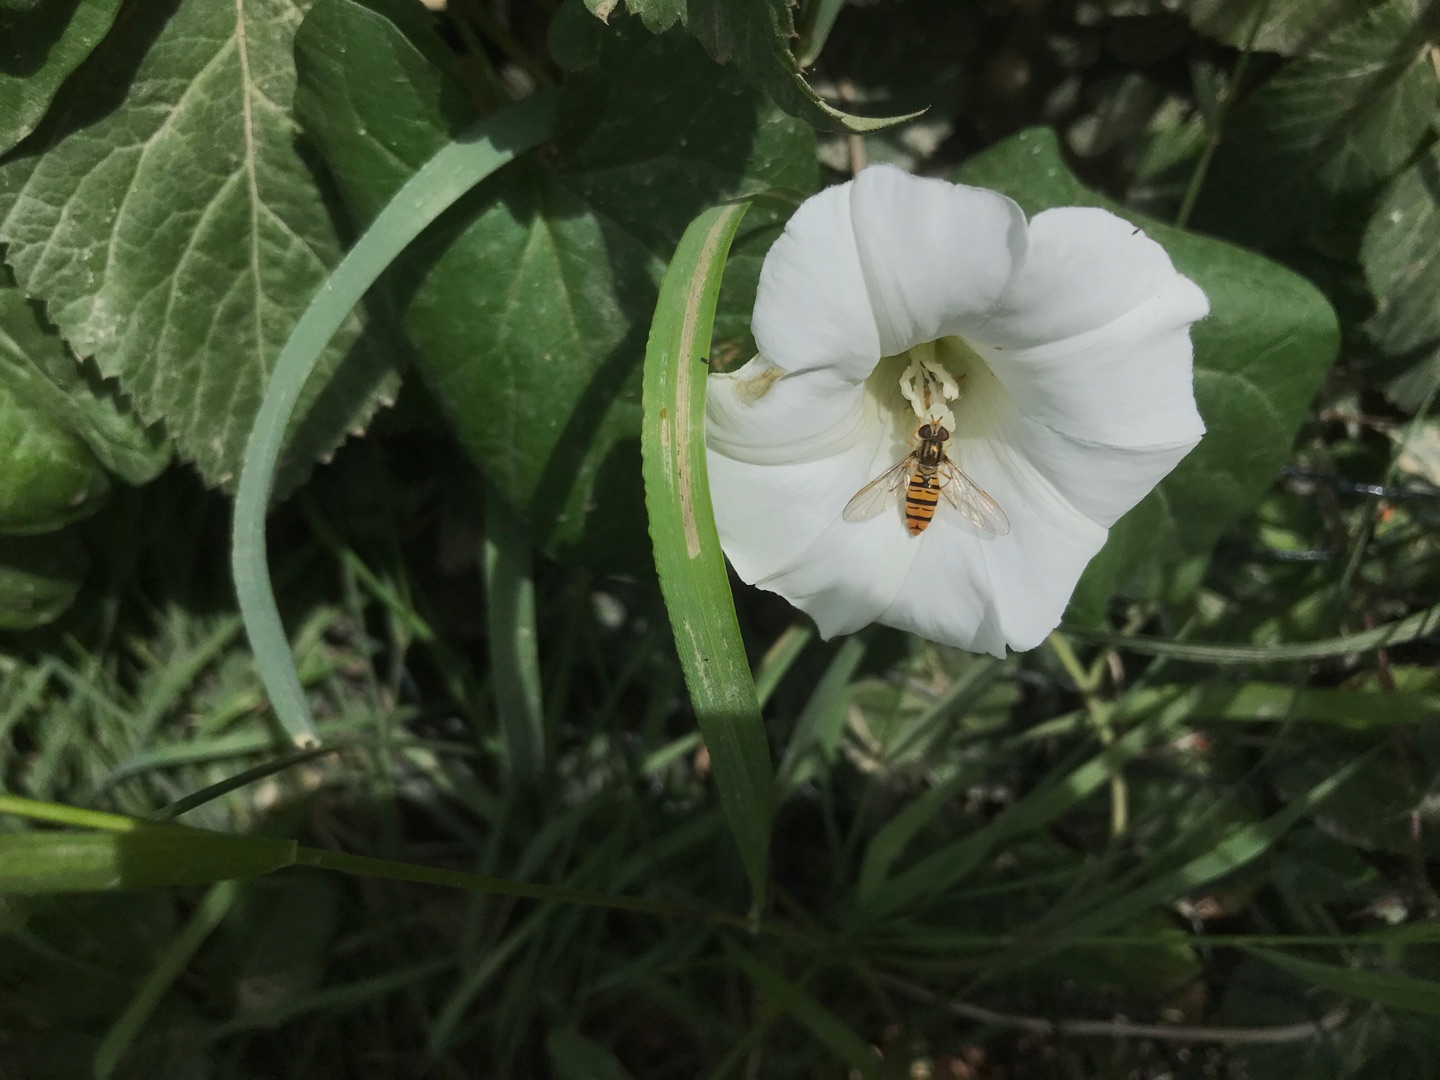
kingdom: Animalia
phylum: Arthropoda
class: Insecta
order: Diptera
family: Syrphidae
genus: Episyrphus
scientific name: Episyrphus balteatus
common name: Dobbeltbåndet svirreflue
